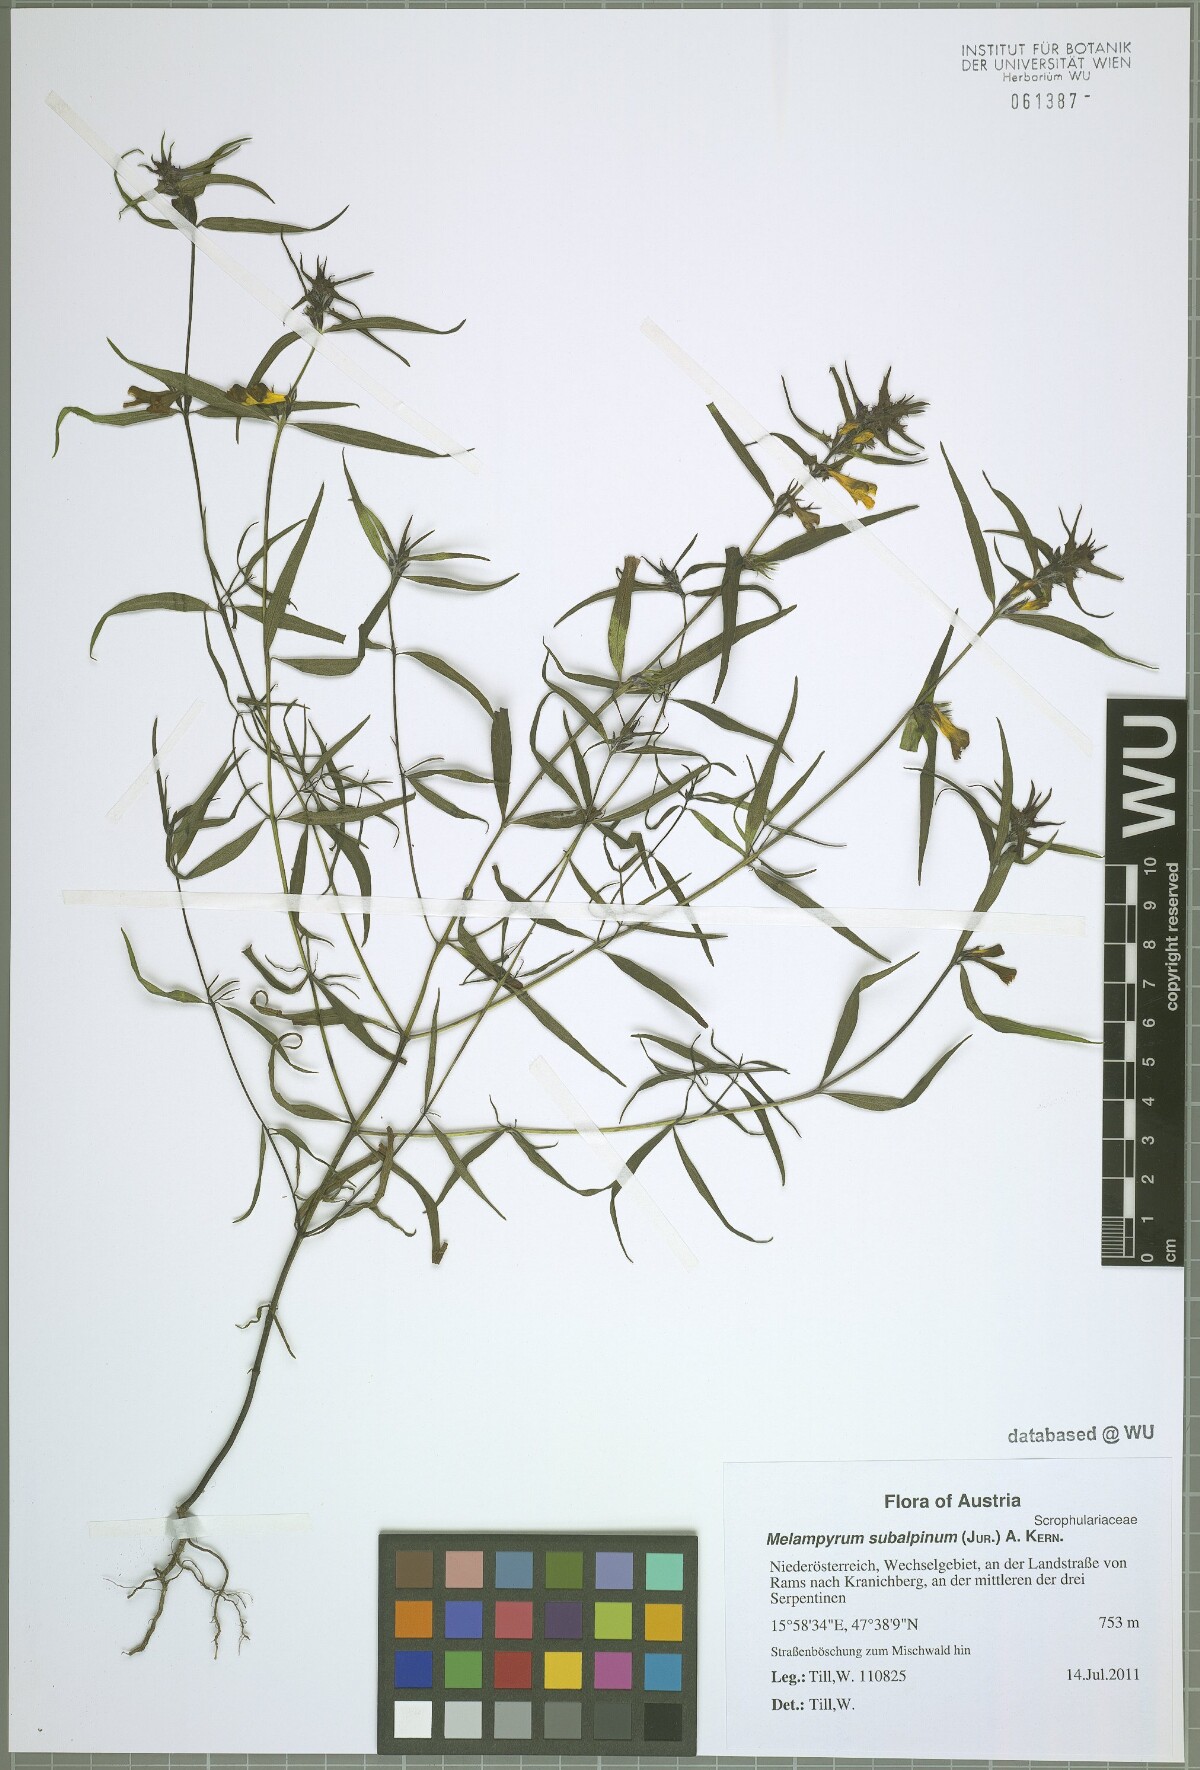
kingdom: Plantae
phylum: Tracheophyta
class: Magnoliopsida
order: Lamiales
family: Orobanchaceae
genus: Melampyrum
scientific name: Melampyrum subalpinum
